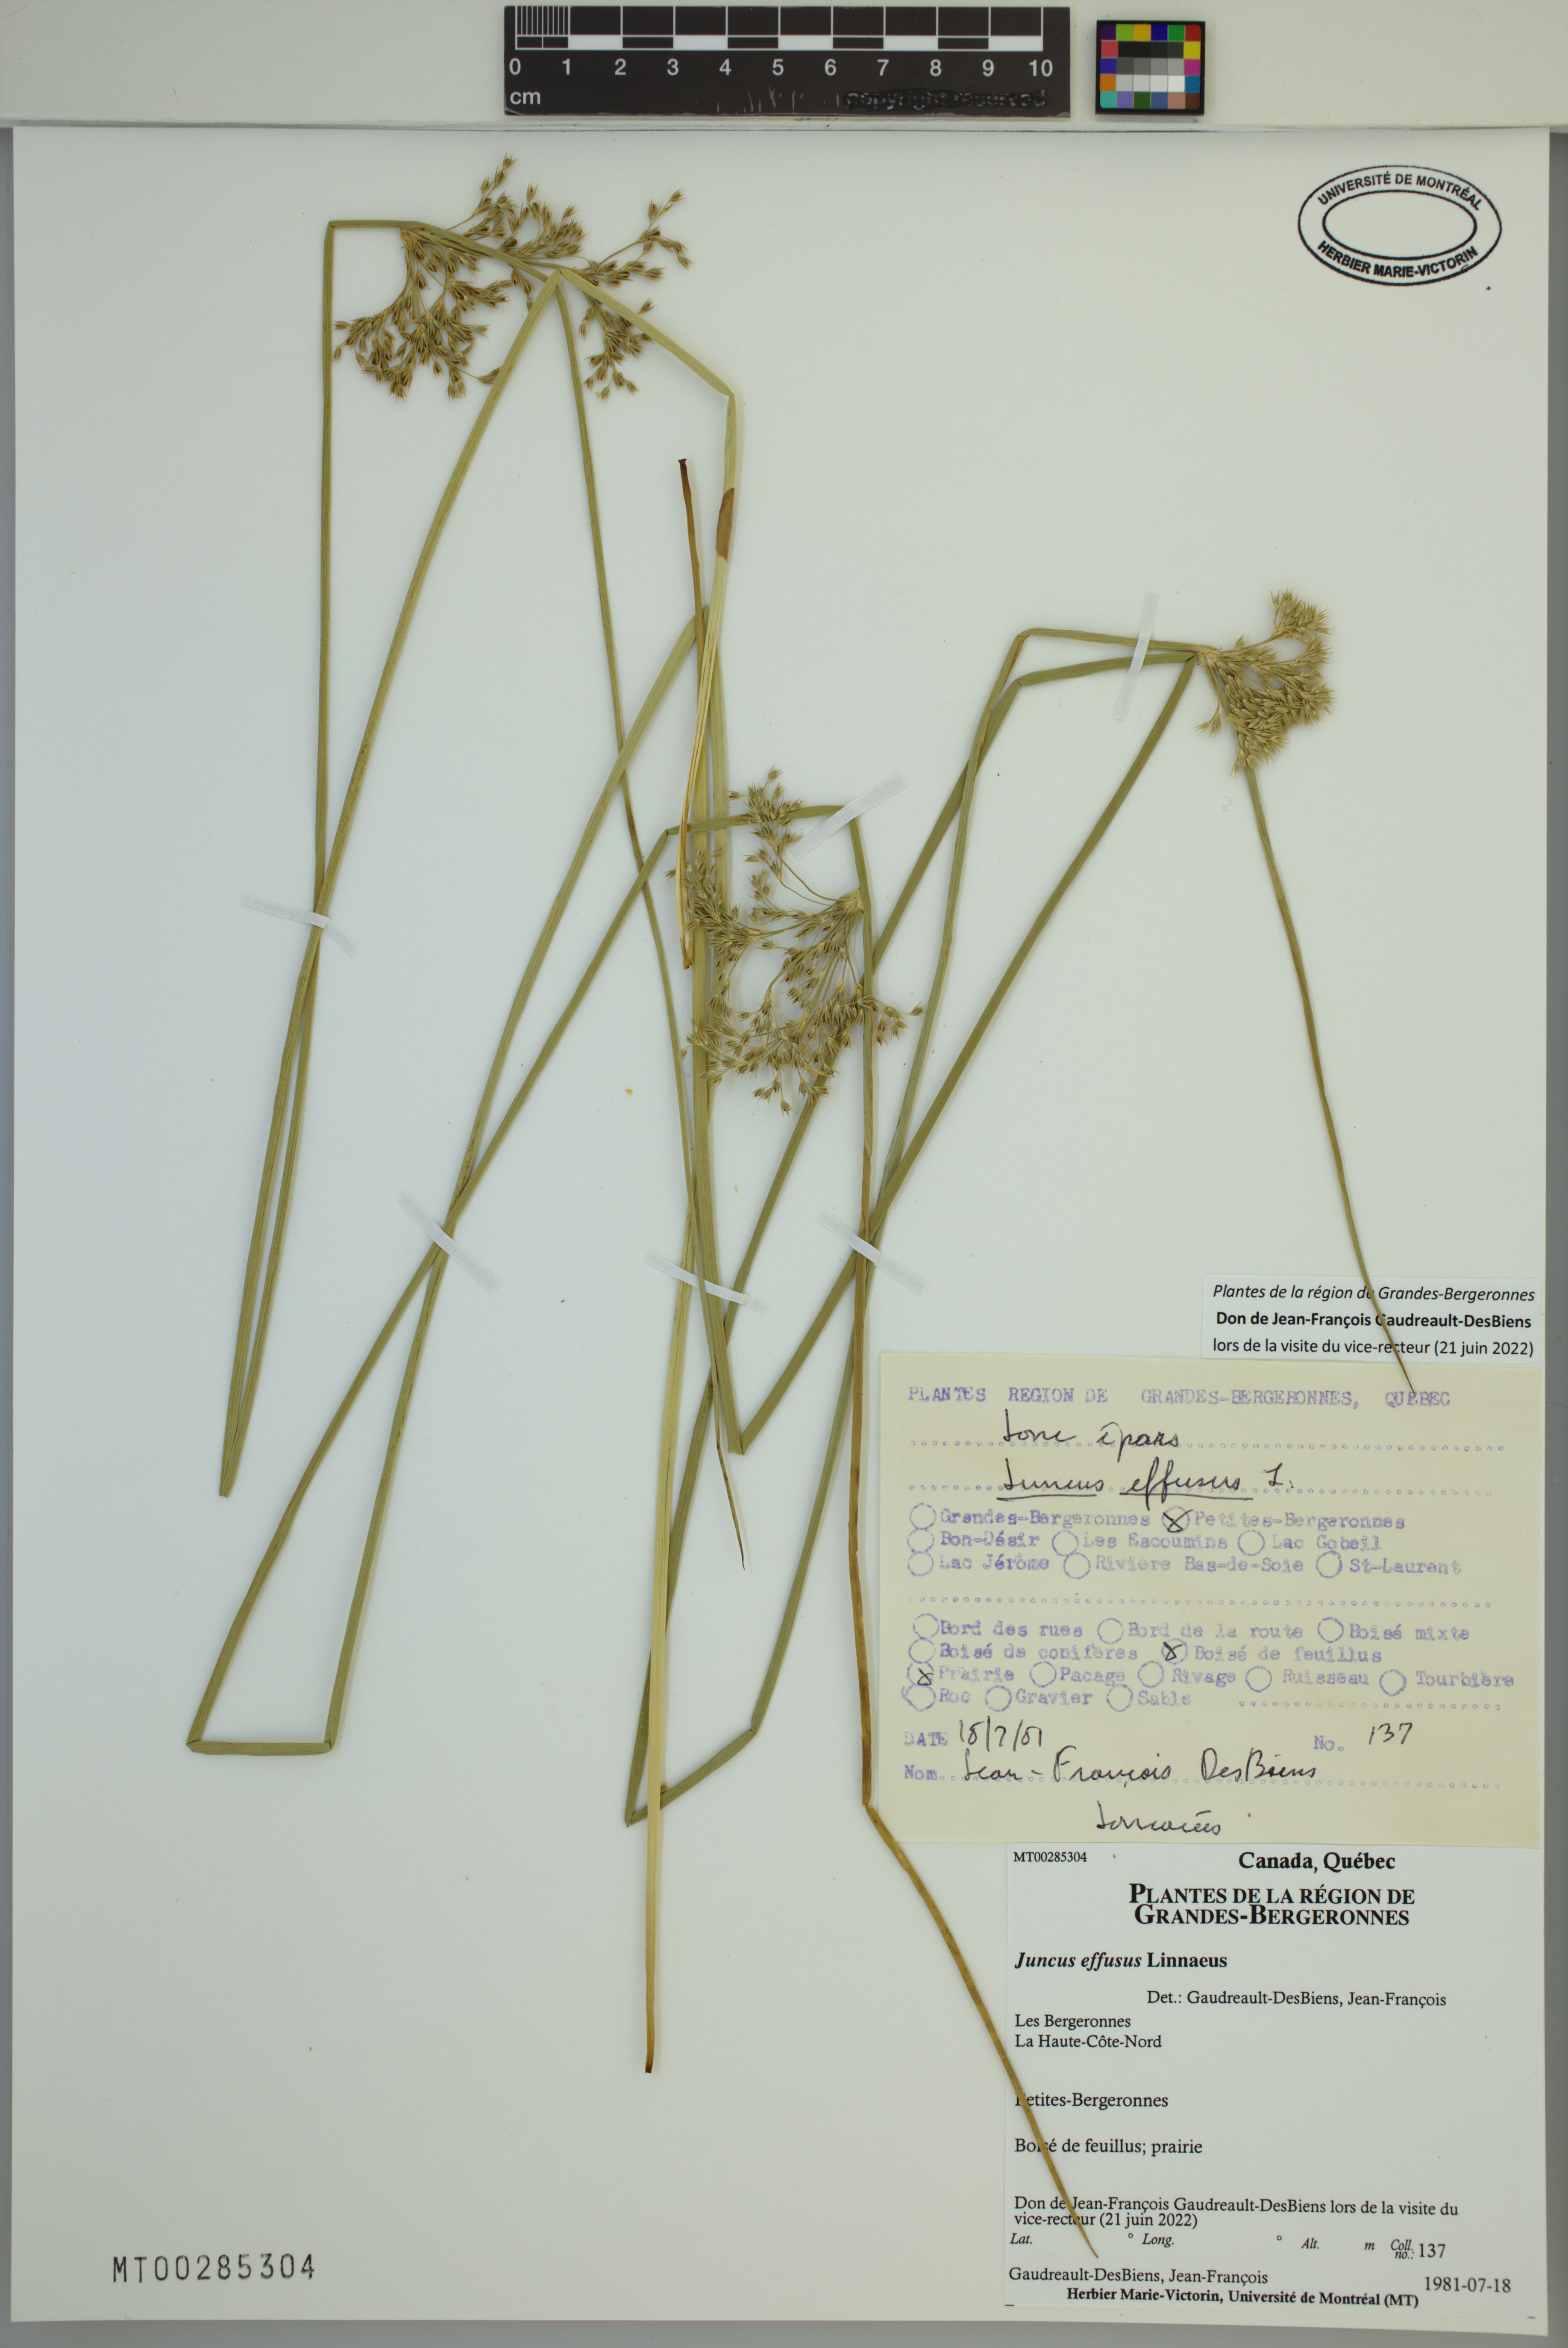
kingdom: Plantae
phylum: Tracheophyta
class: Liliopsida
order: Poales
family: Juncaceae
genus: Juncus
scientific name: Juncus effusus
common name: Soft rush
